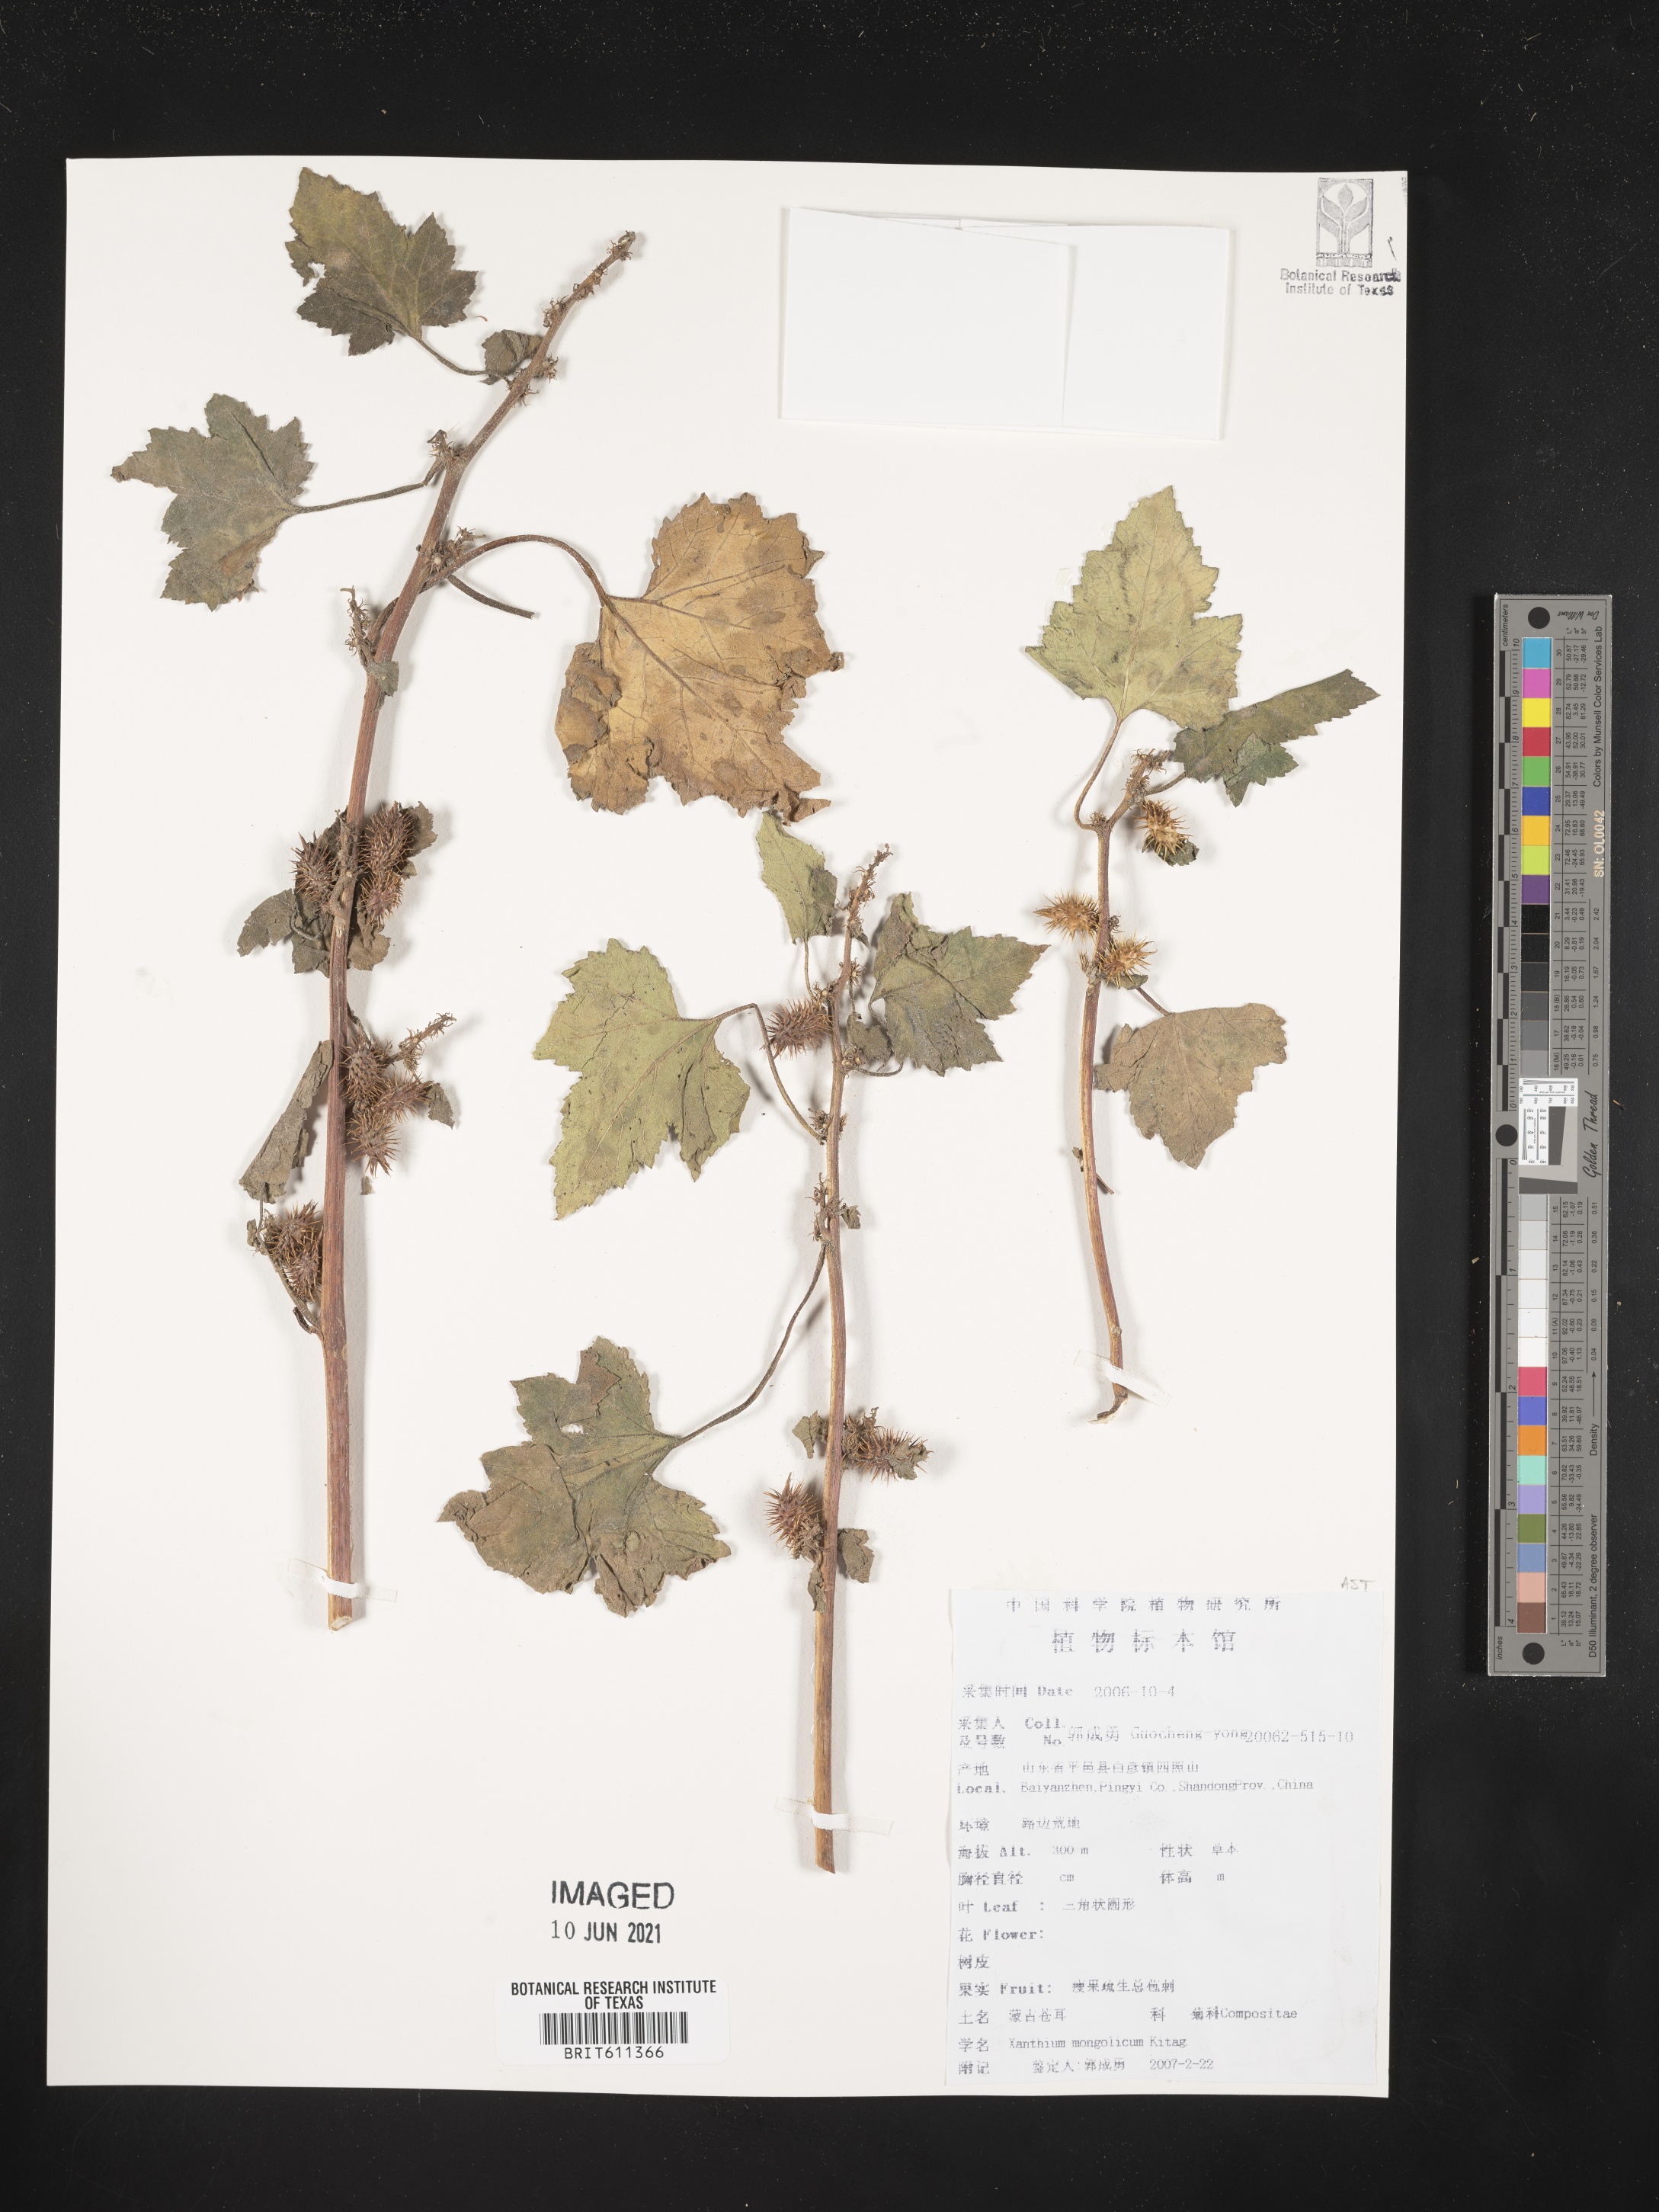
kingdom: Plantae
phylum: Tracheophyta
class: Magnoliopsida
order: Asterales
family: Asteraceae
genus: Xanthium
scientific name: Xanthium strumarium
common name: Rough cocklebur
